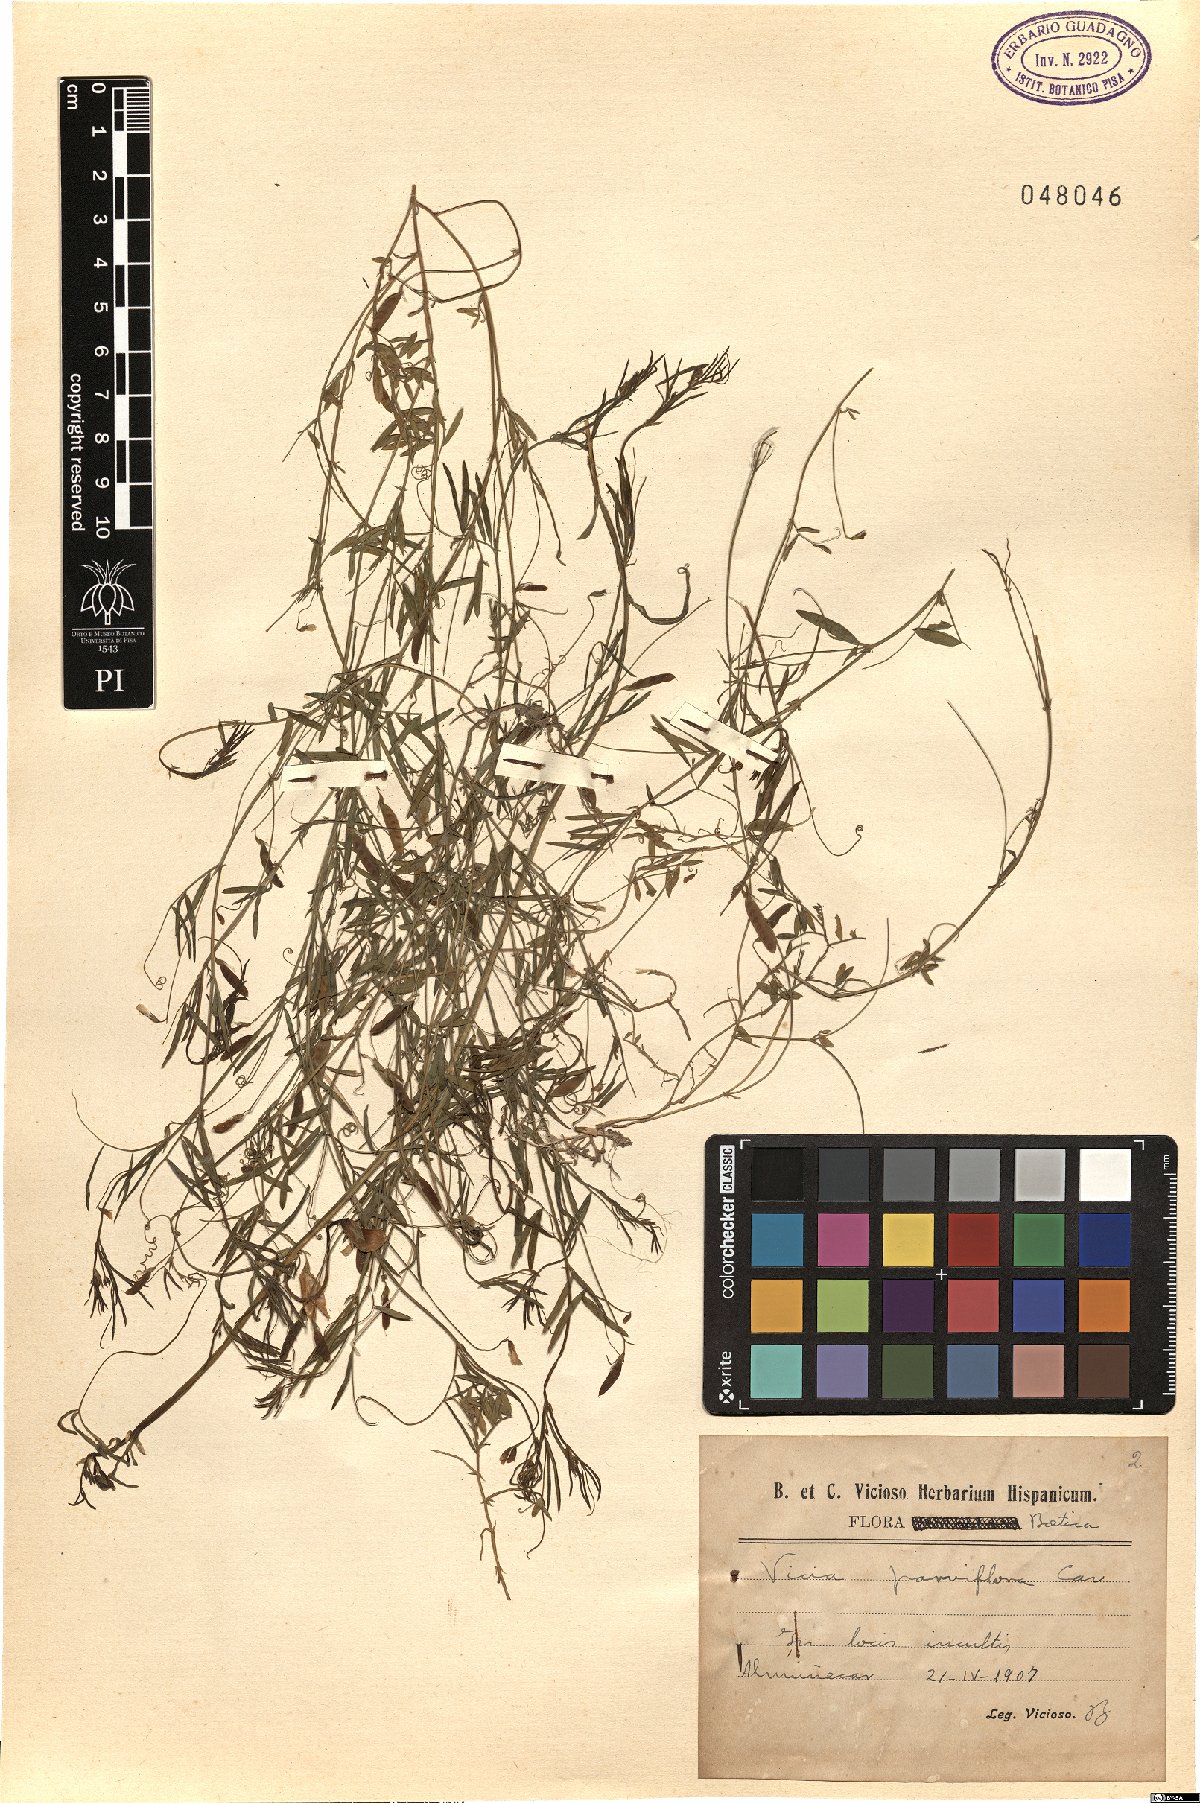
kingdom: Plantae
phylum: Tracheophyta
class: Magnoliopsida
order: Fabales
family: Fabaceae
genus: Vicia
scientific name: Vicia parviflora
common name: Slender tare
